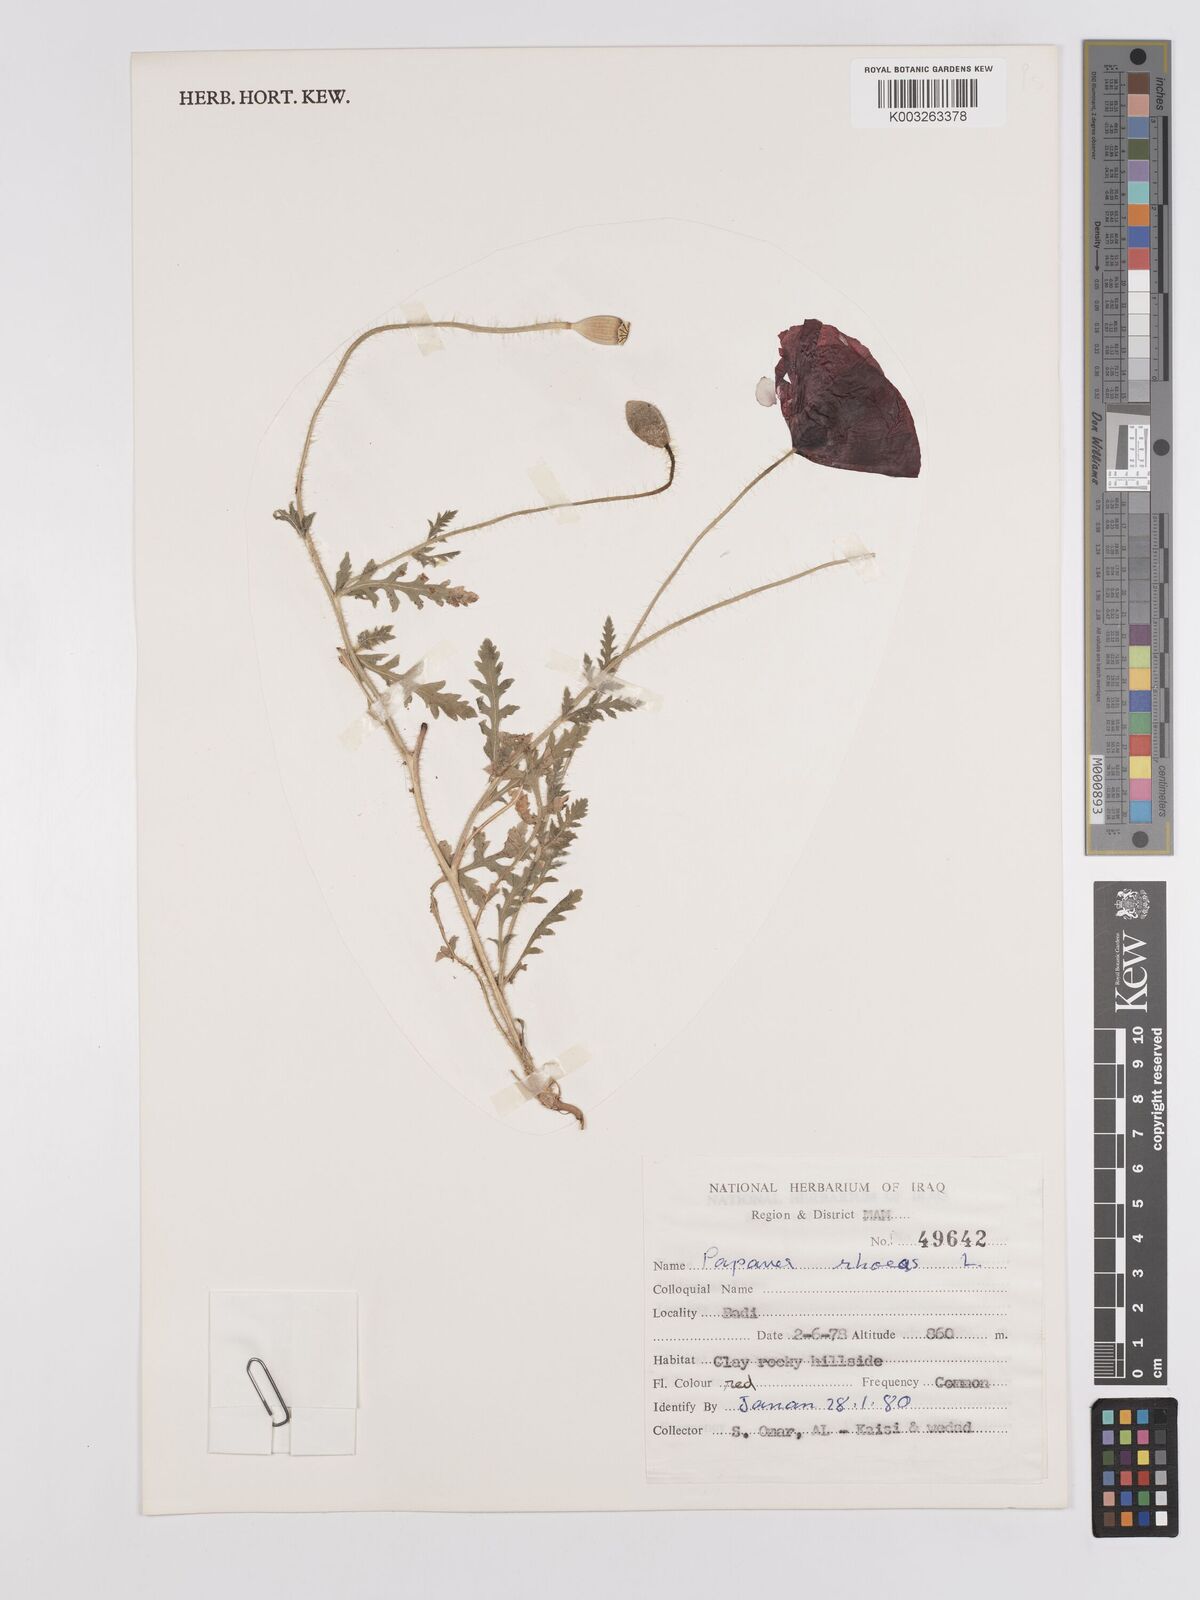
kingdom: Plantae
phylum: Tracheophyta
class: Magnoliopsida
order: Ranunculales
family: Papaveraceae
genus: Papaver
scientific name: Papaver rhoeas
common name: Corn poppy
